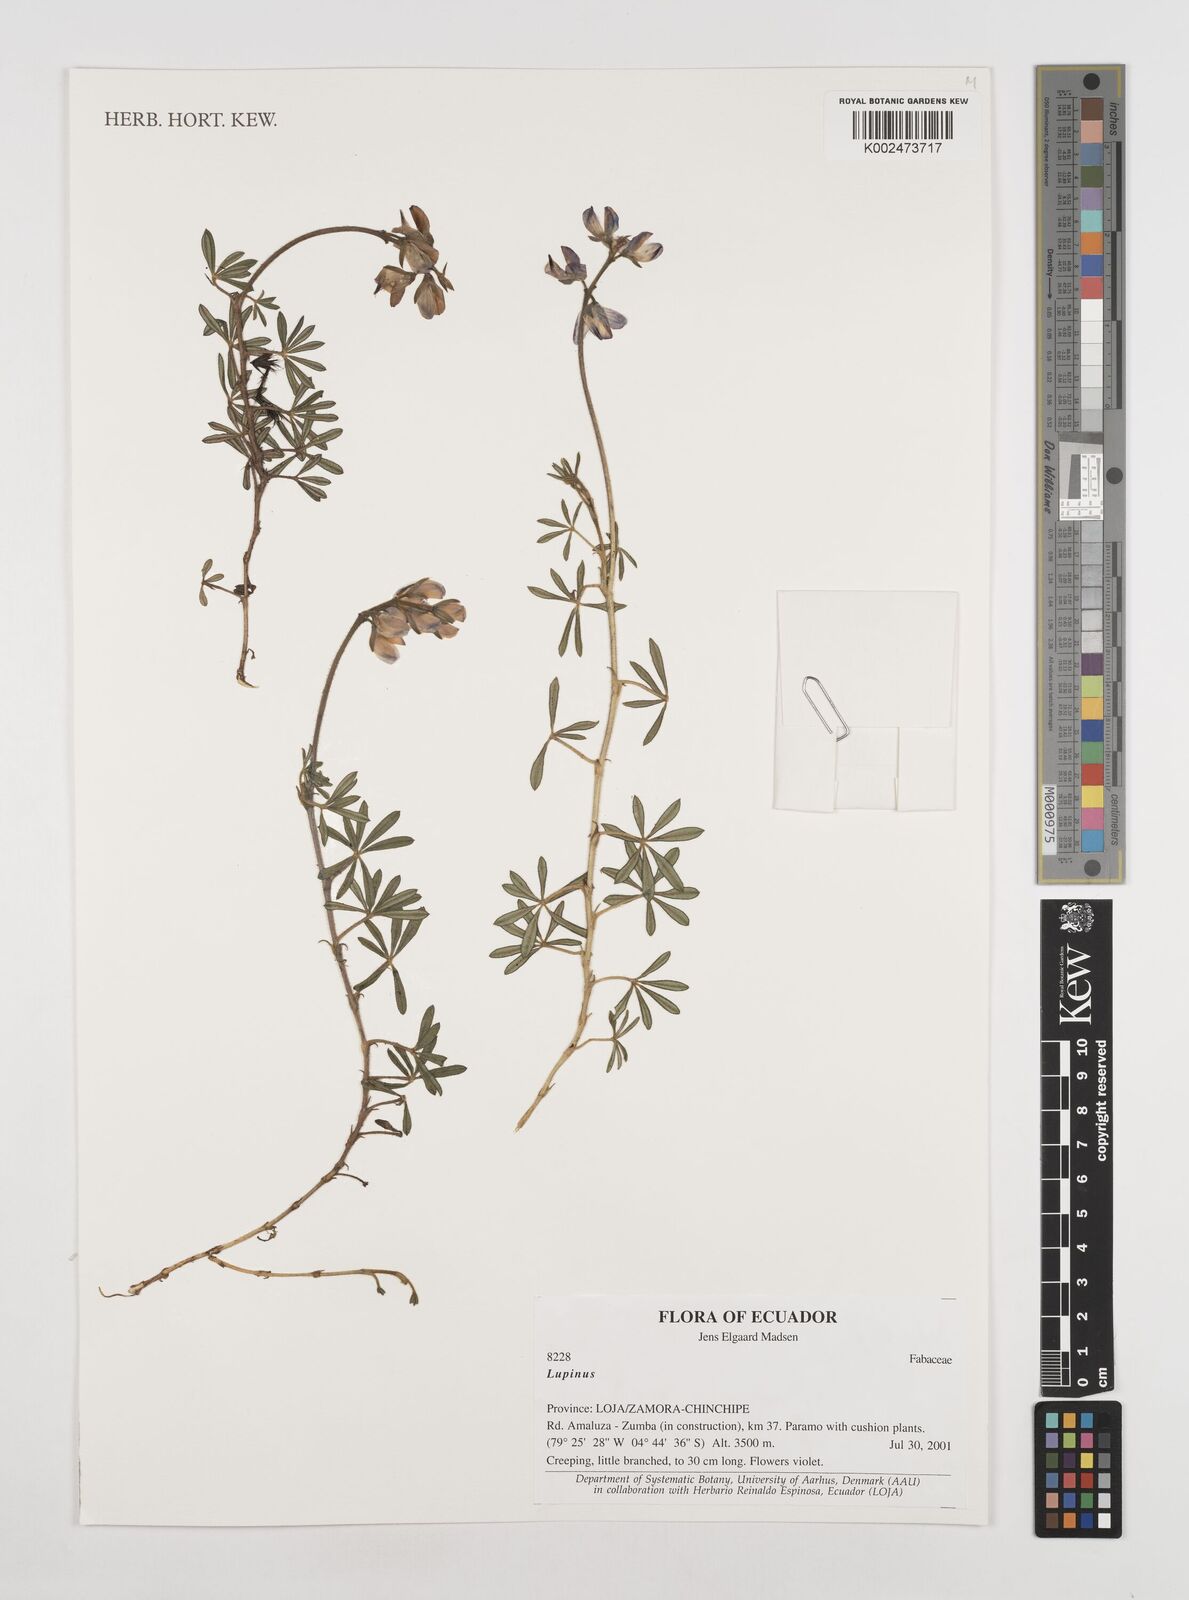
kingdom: Plantae
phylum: Tracheophyta
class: Magnoliopsida
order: Fabales
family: Fabaceae
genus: Lupinus
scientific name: Lupinus
